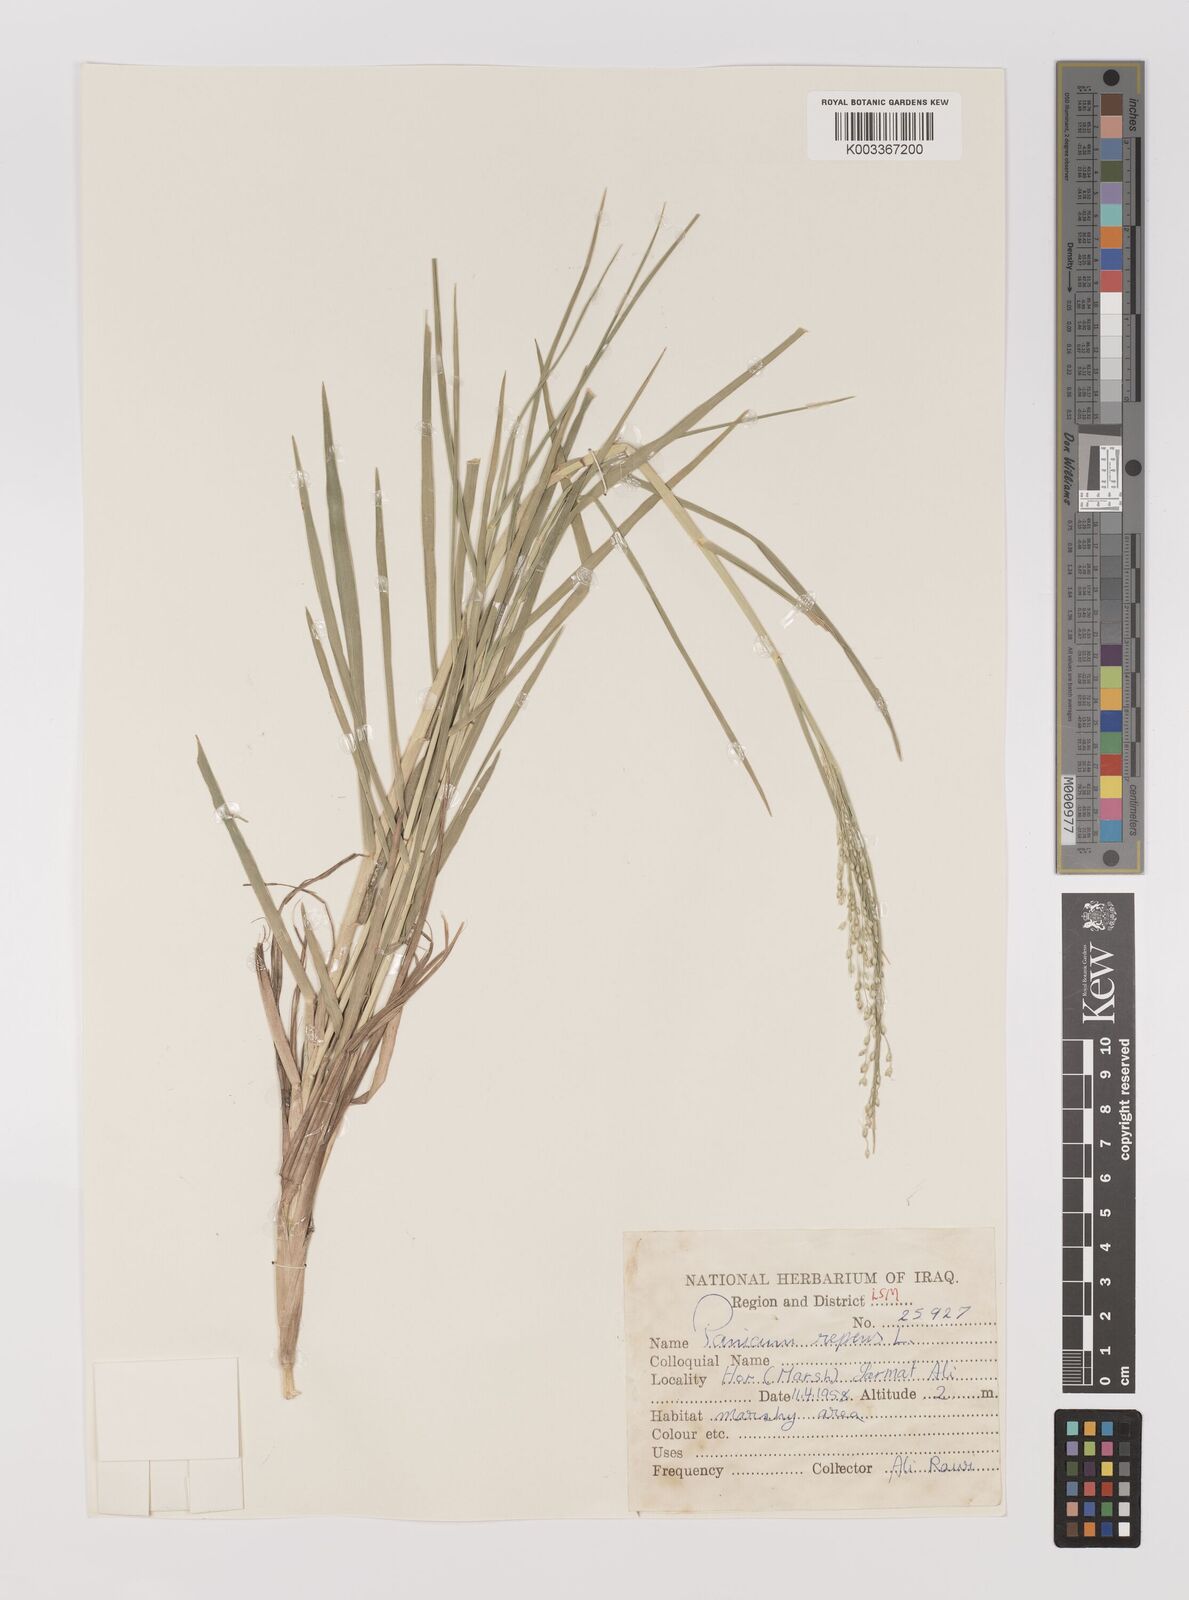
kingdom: Plantae
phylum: Tracheophyta
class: Liliopsida
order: Poales
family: Poaceae
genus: Panicum
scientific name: Panicum repens
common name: Torpedo grass
